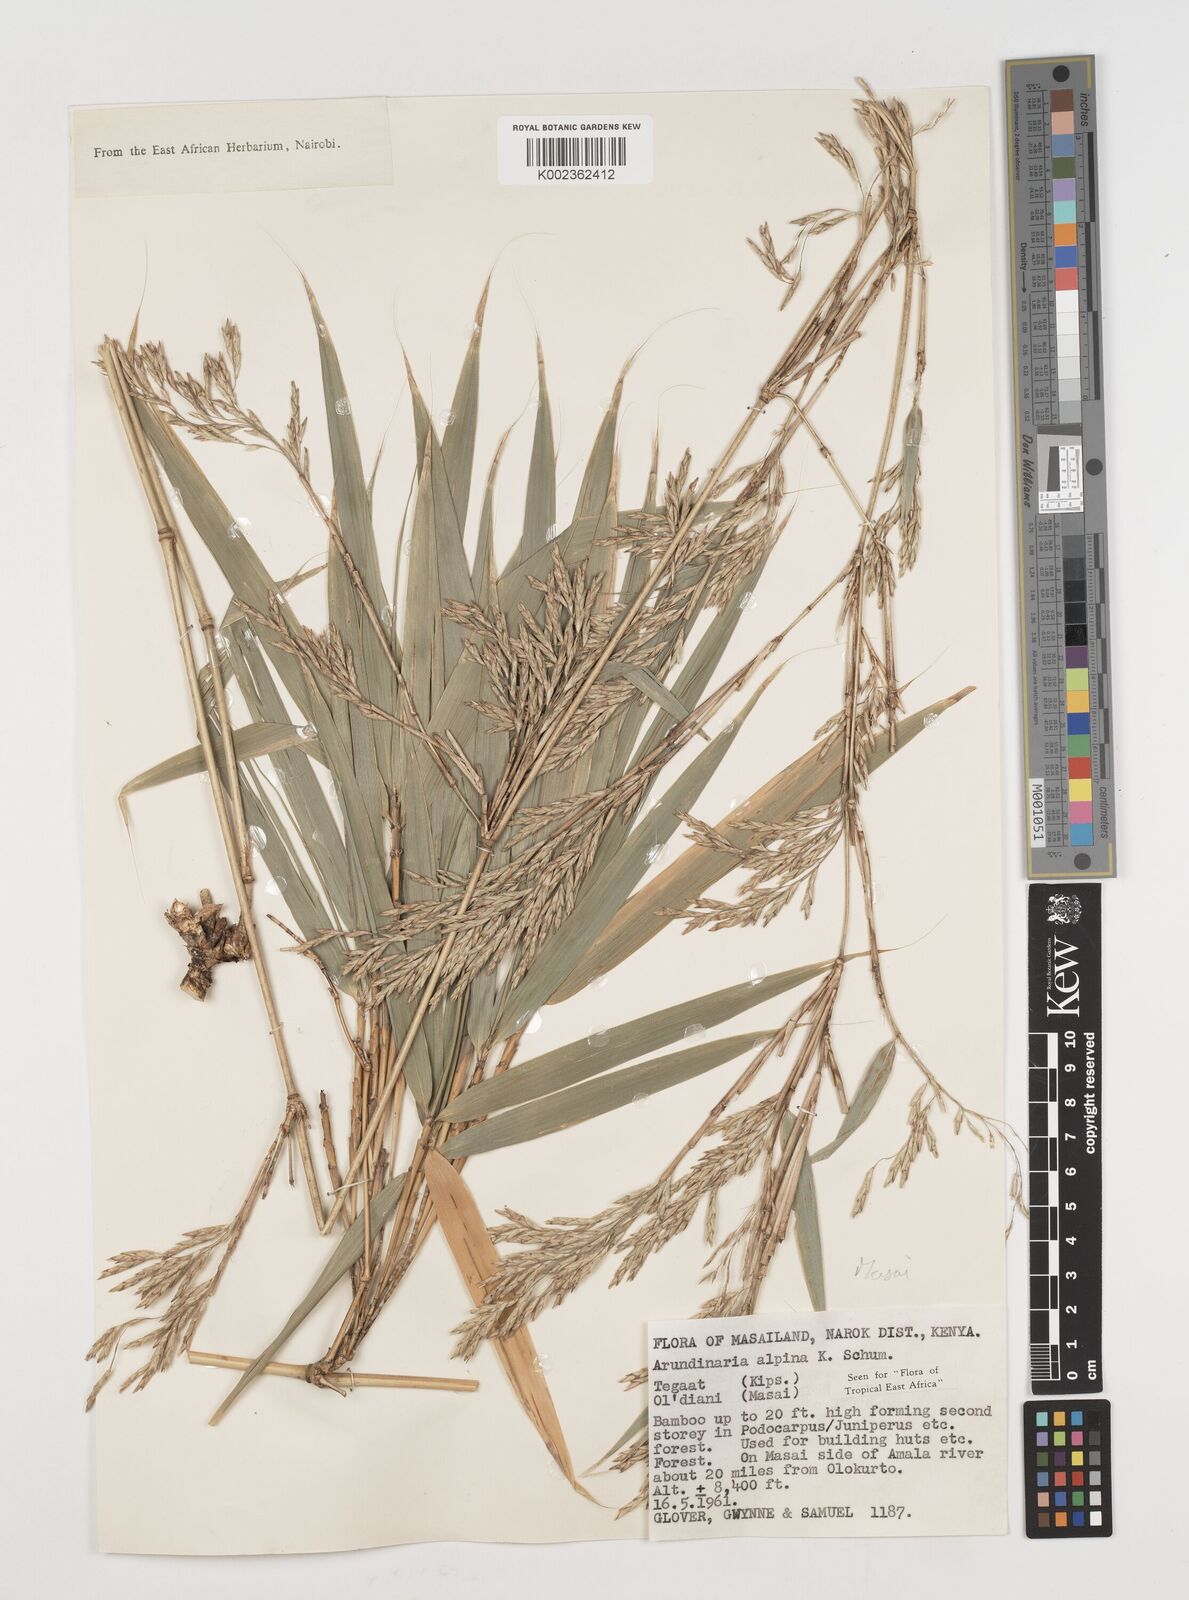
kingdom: Plantae
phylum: Tracheophyta
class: Liliopsida
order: Poales
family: Poaceae
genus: Oldeania
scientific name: Oldeania alpina
